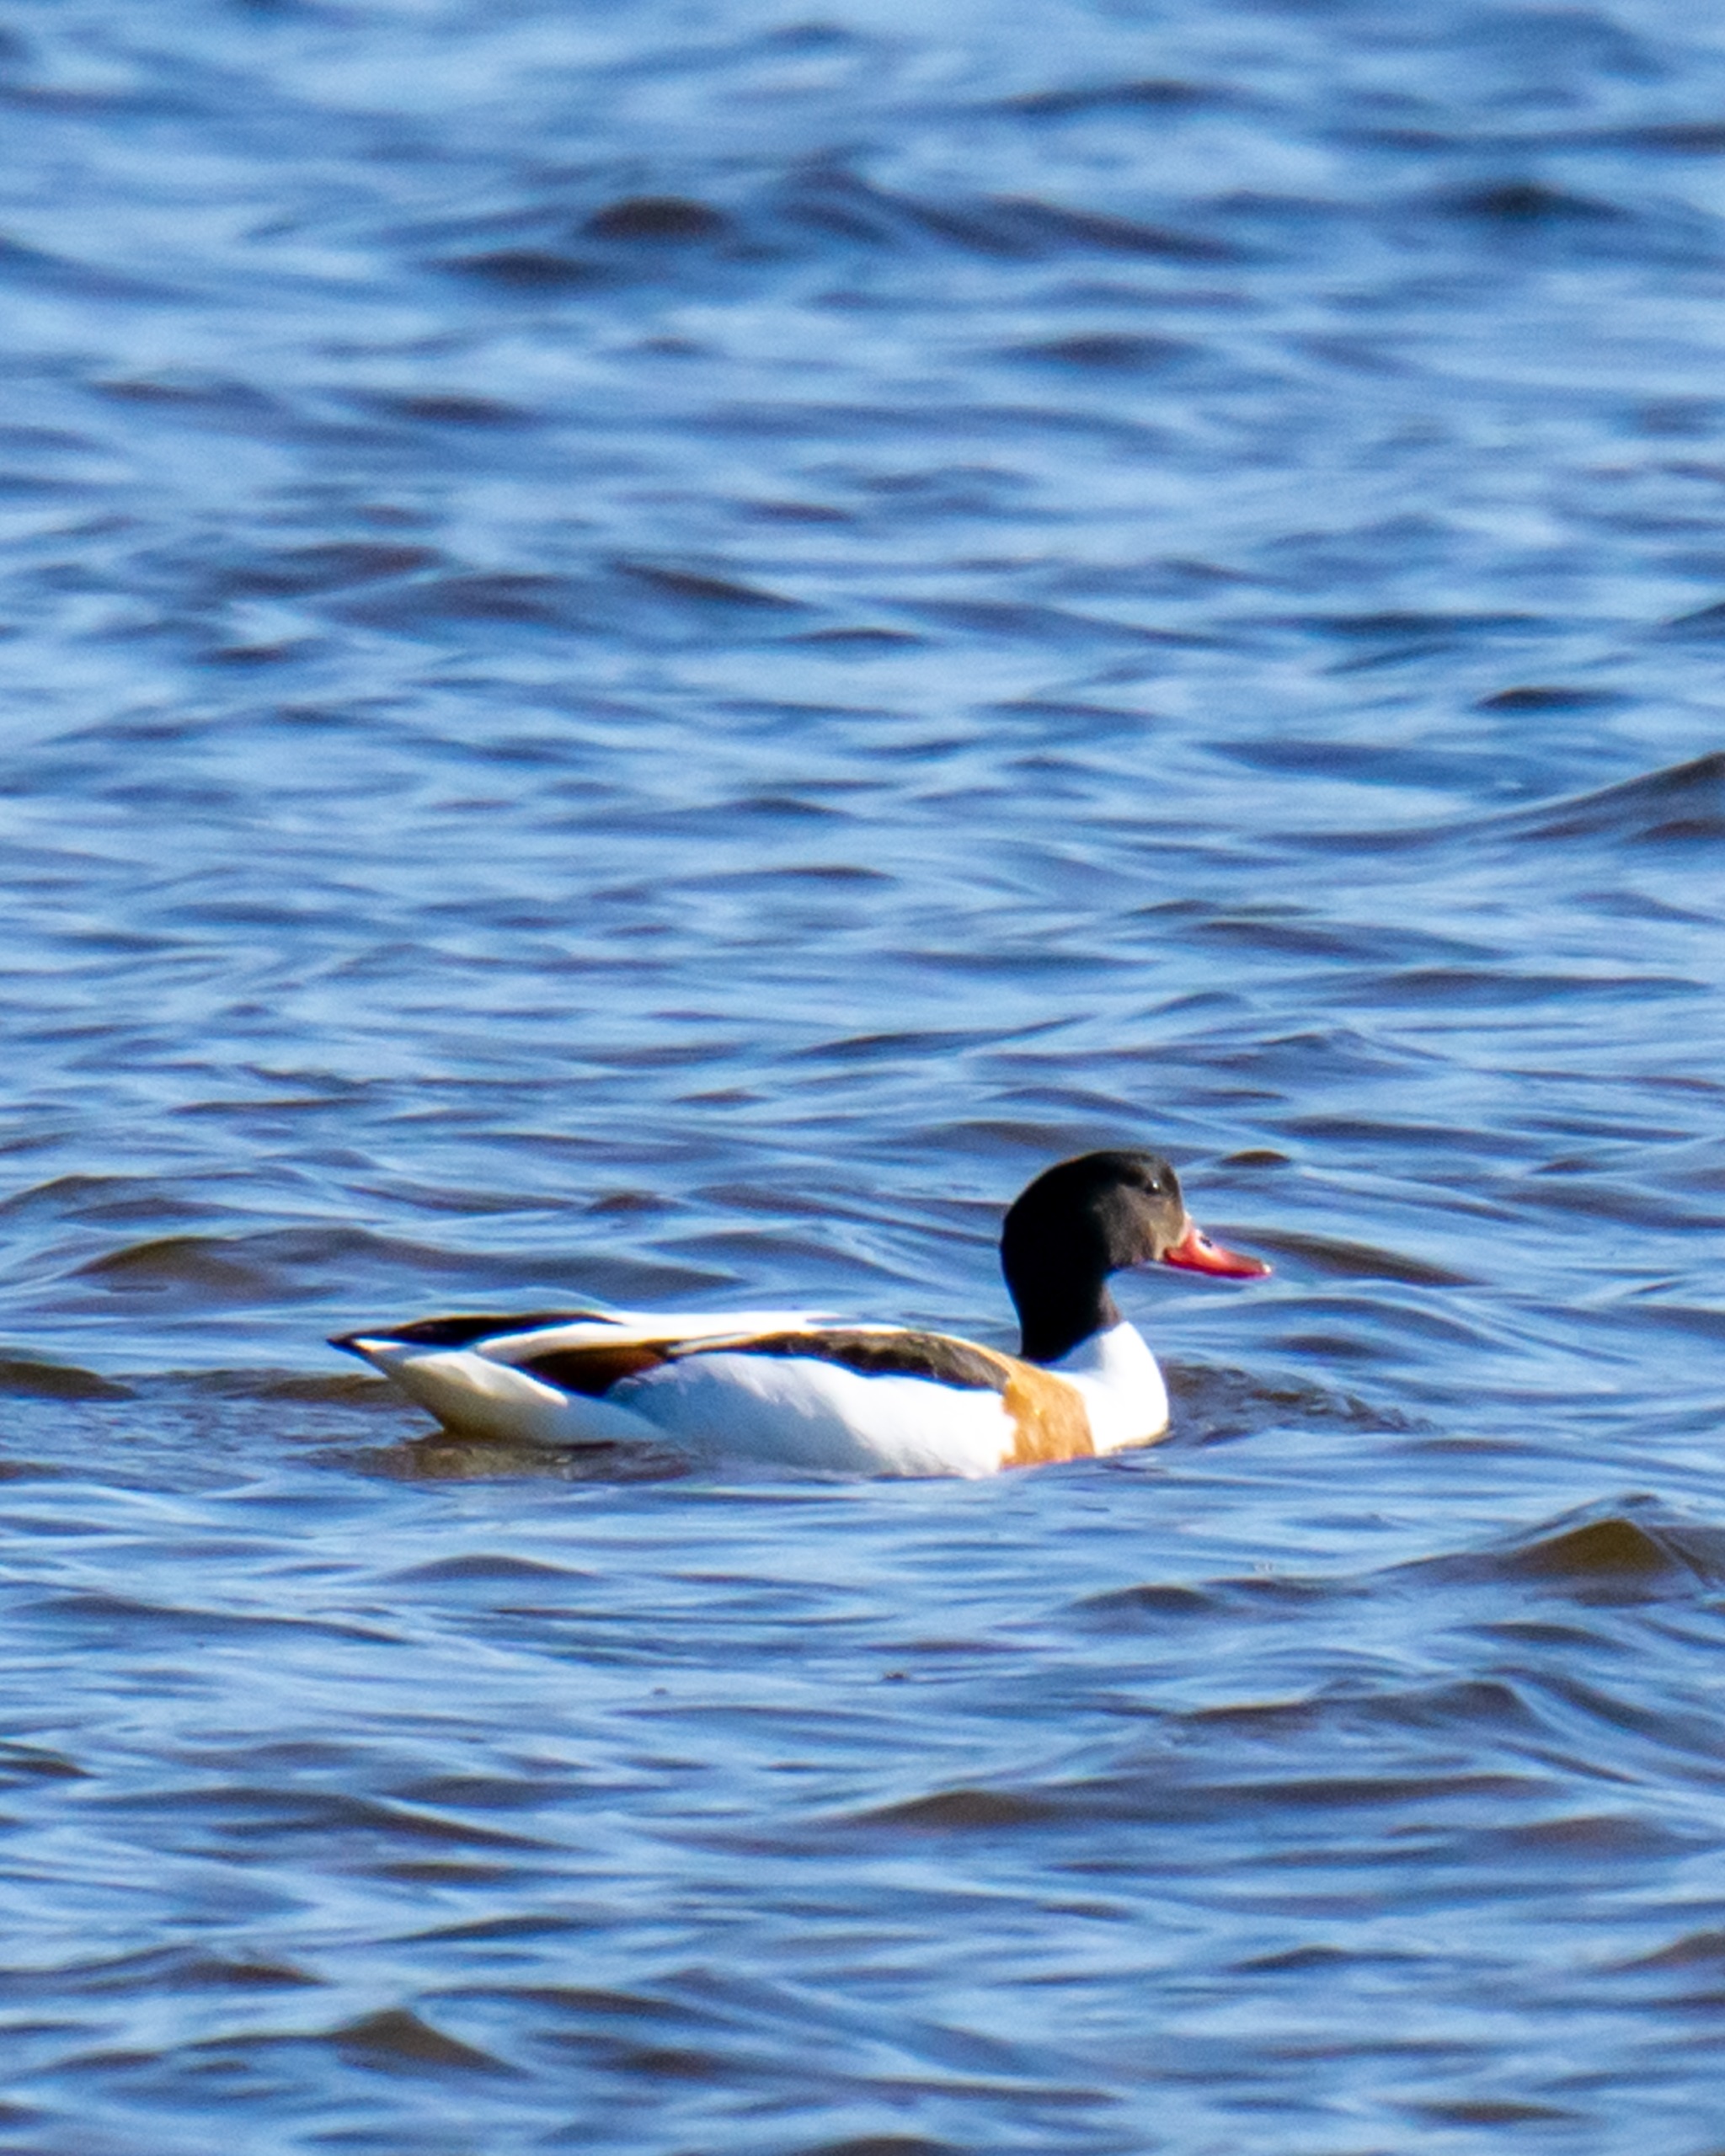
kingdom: Animalia
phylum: Chordata
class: Aves
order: Anseriformes
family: Anatidae
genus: Tadorna
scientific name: Tadorna tadorna
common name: Gravand
